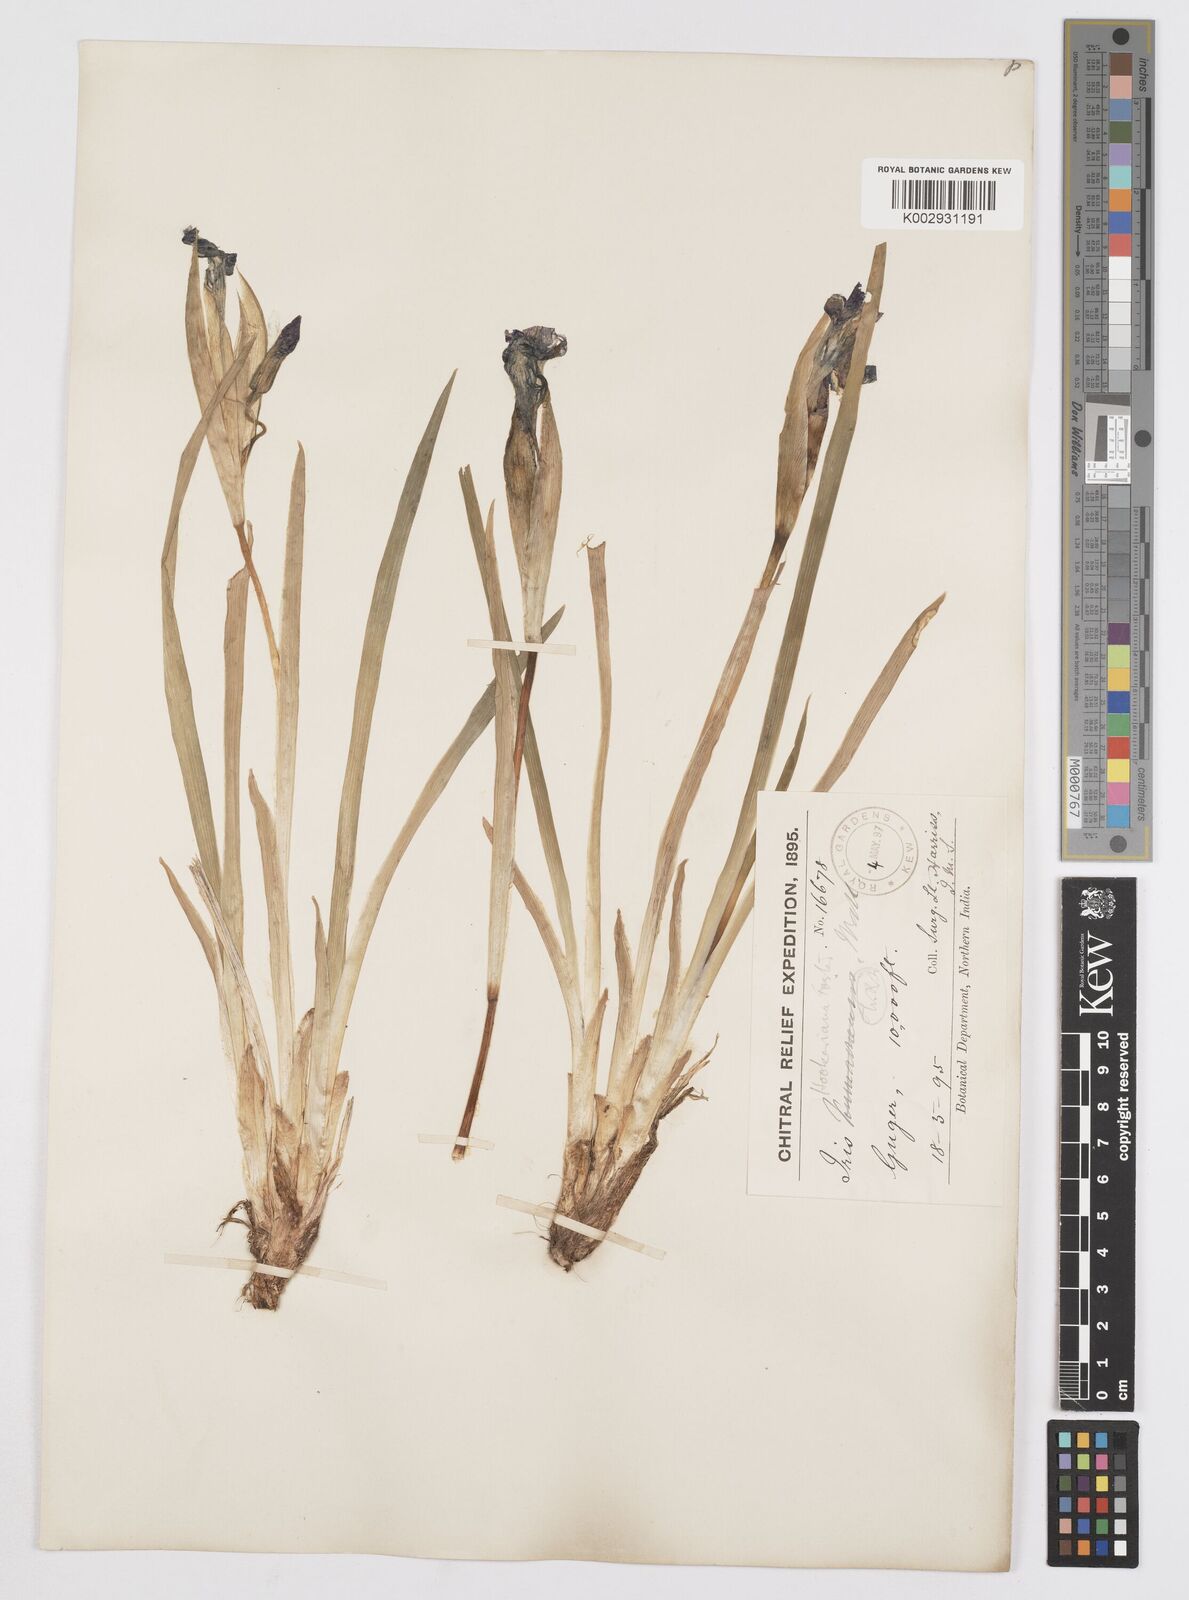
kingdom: Plantae
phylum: Tracheophyta
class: Liliopsida
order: Asparagales
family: Iridaceae
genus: Iris
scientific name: Iris hookeriana
